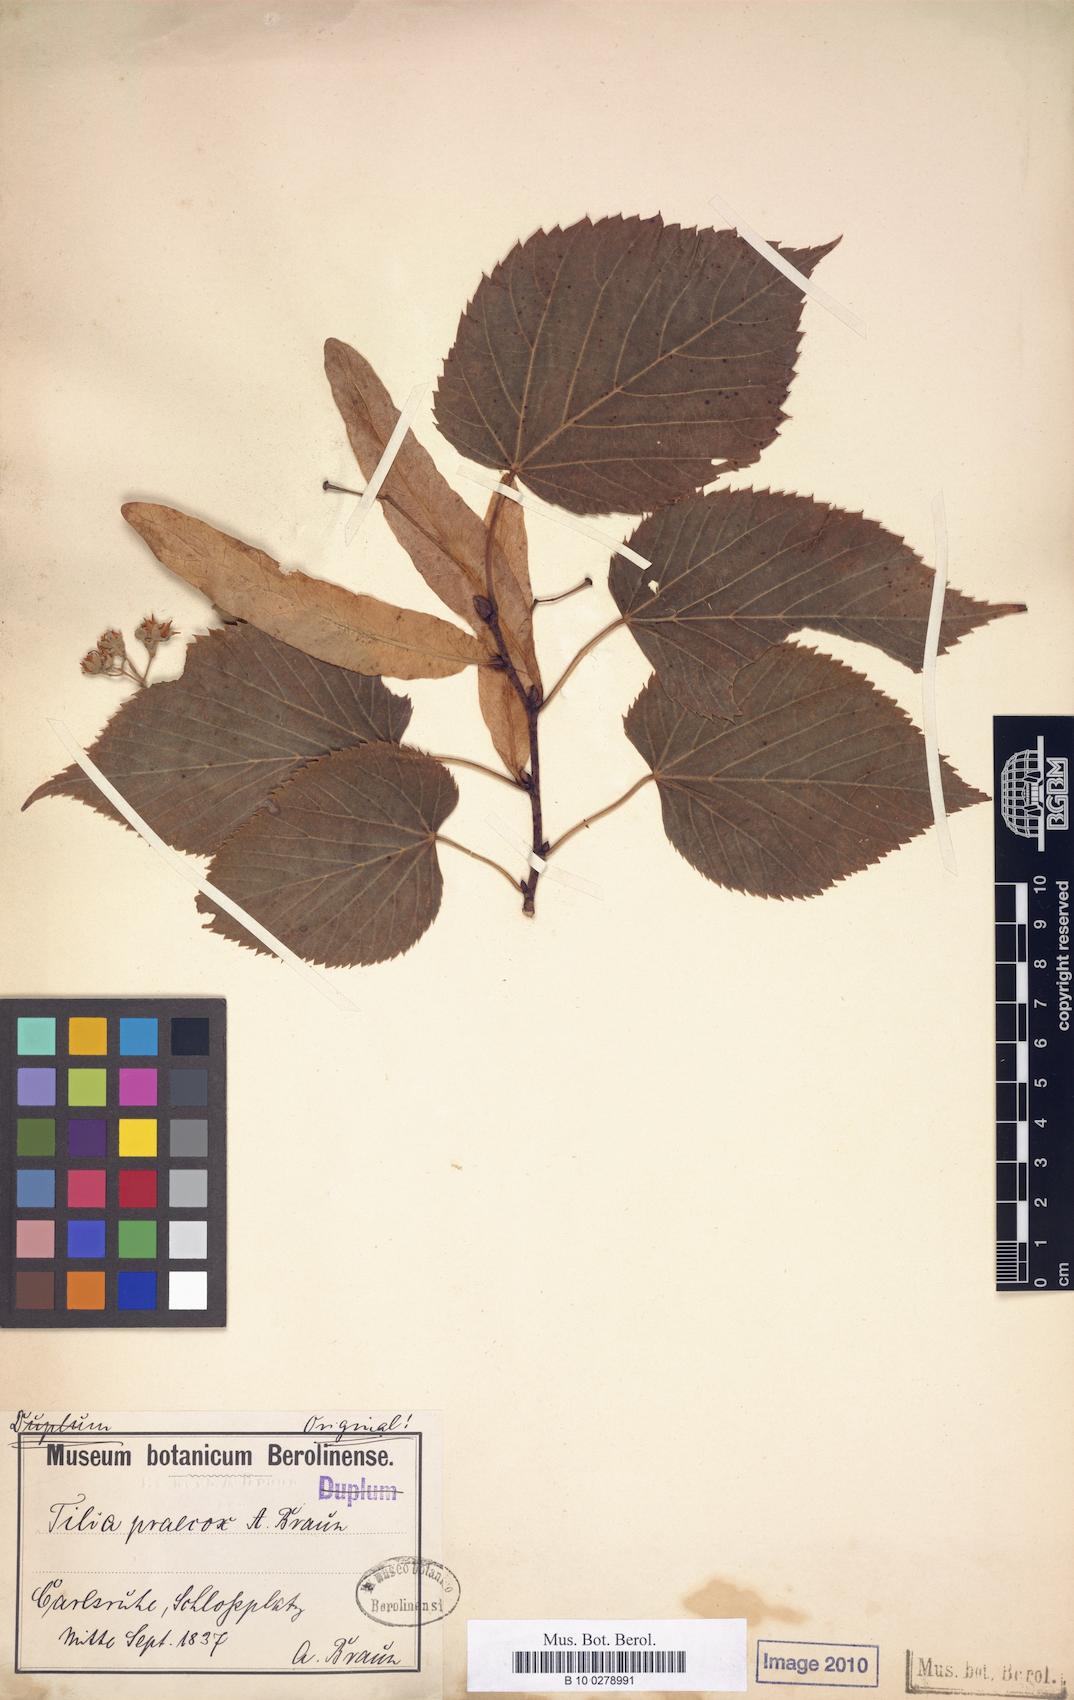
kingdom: Plantae
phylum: Tracheophyta
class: Magnoliopsida
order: Malvales
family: Malvaceae
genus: Tilia
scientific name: Tilia flaccida
